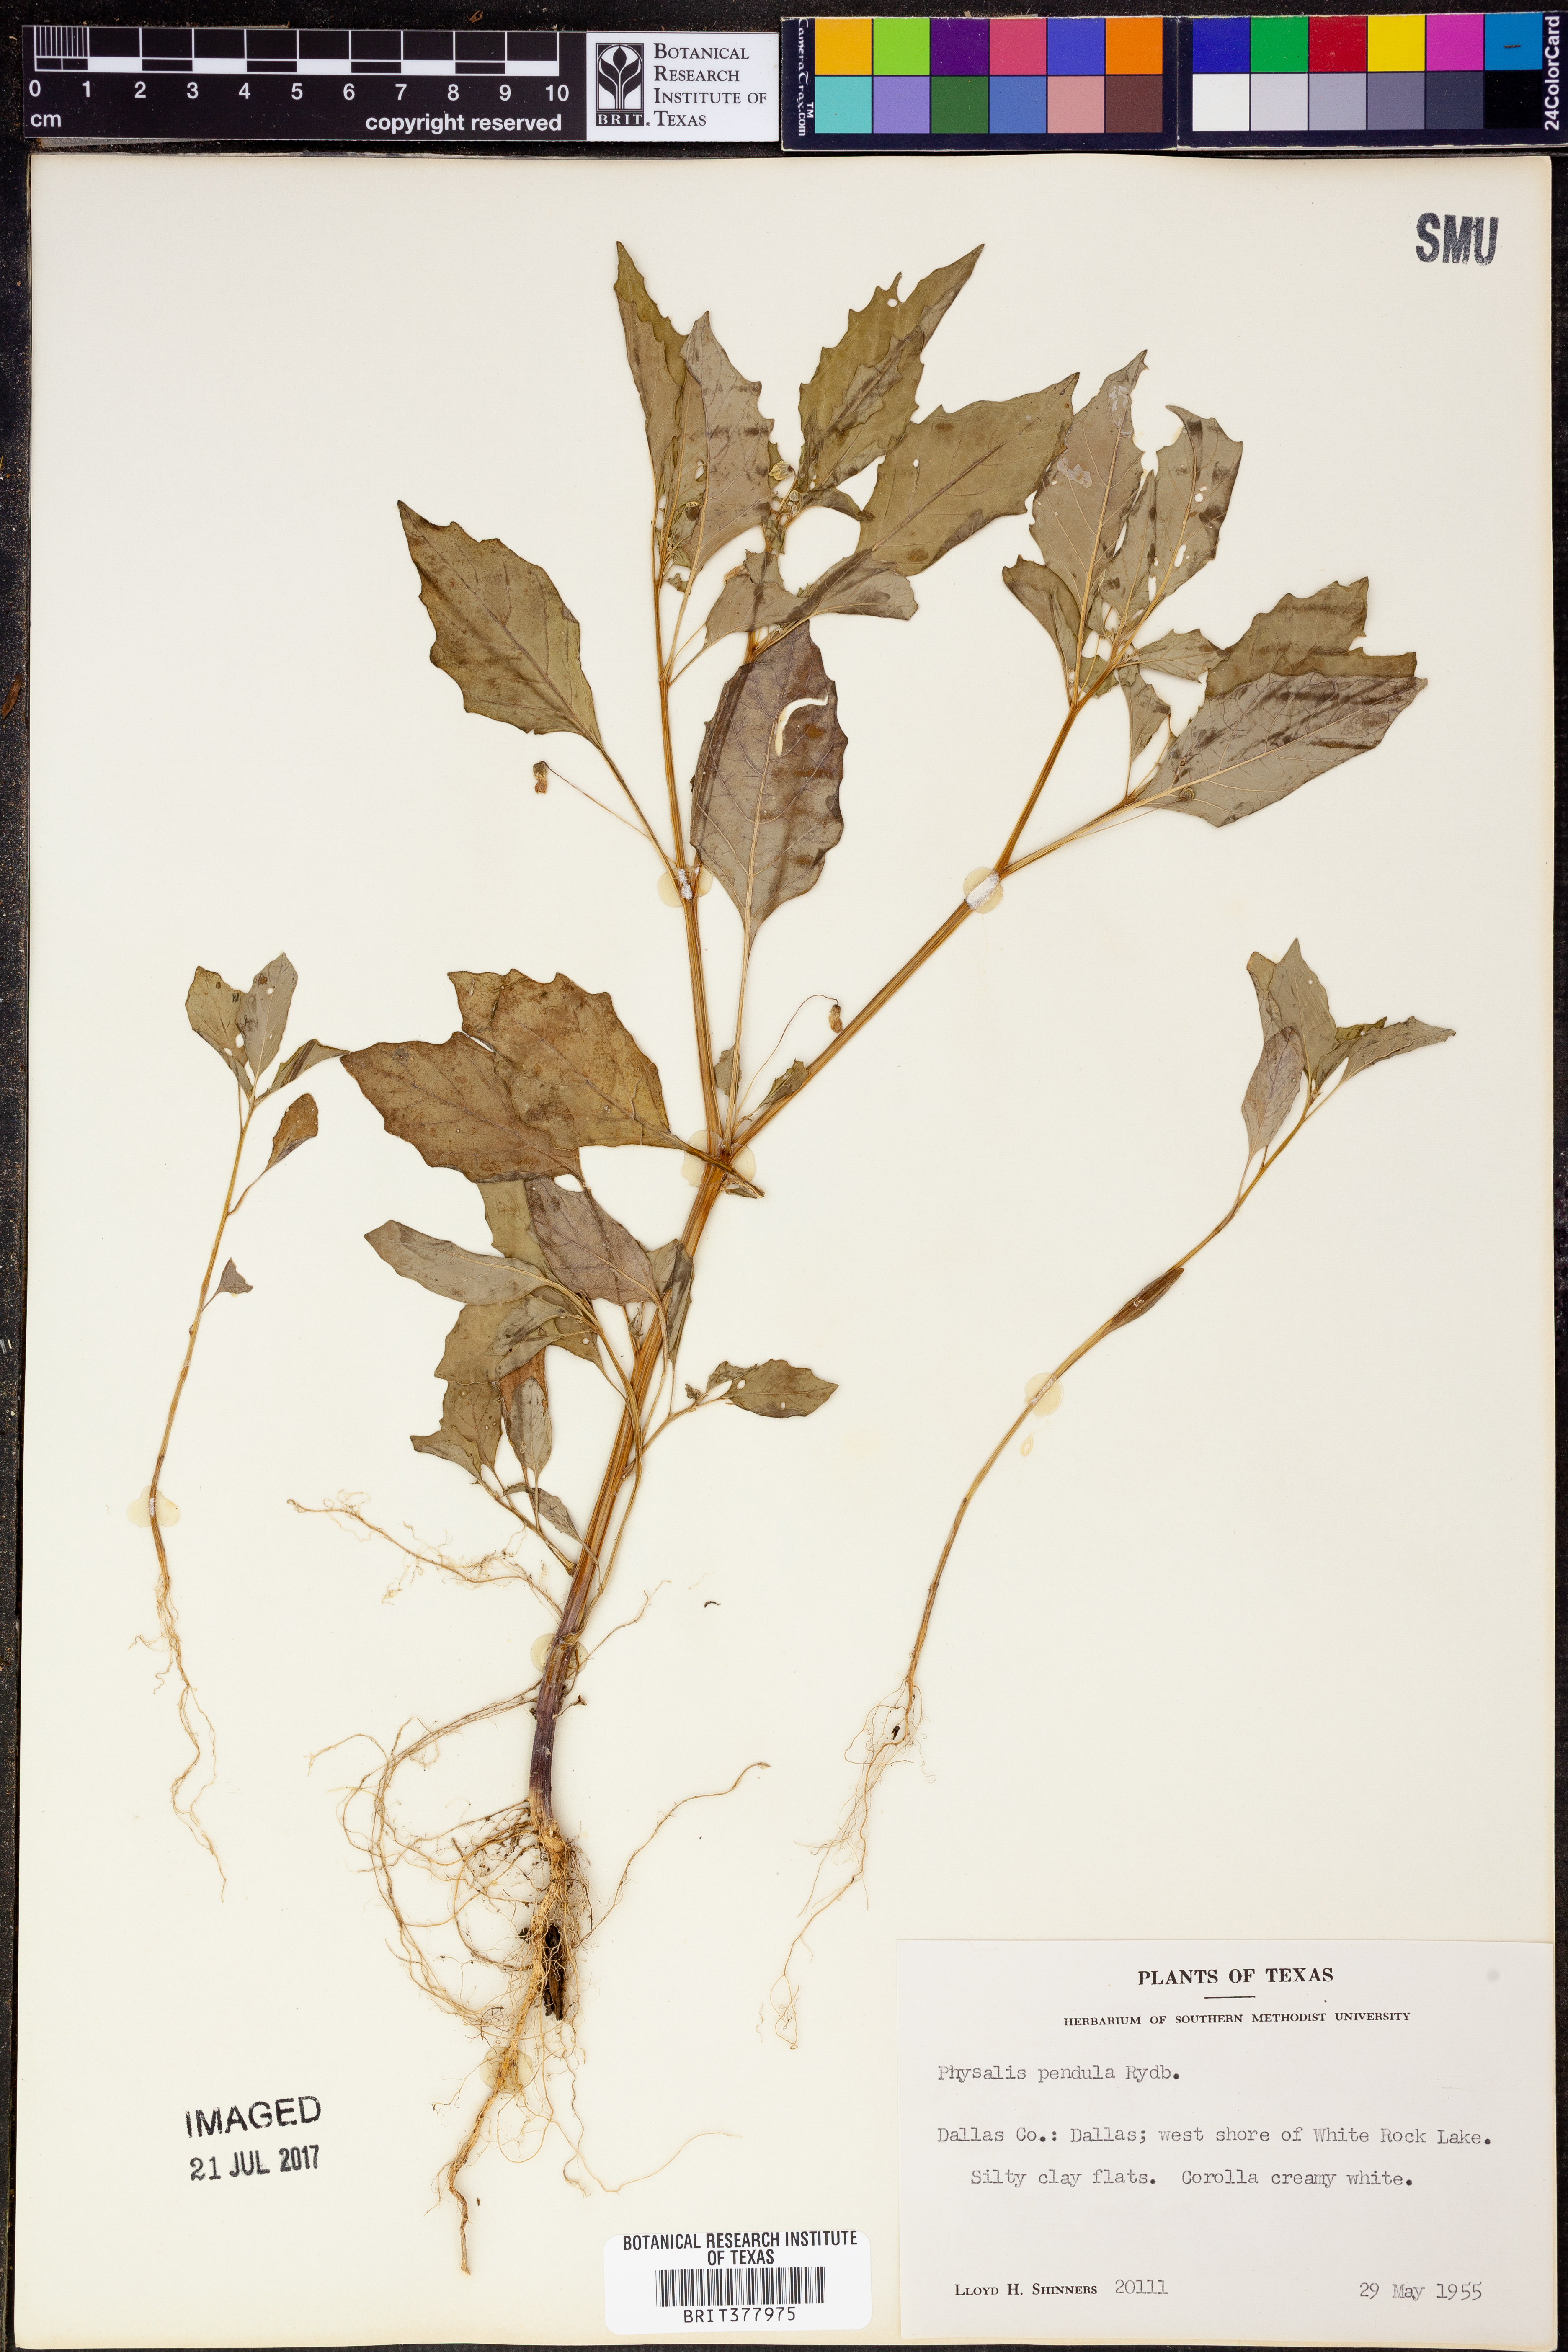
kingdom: Plantae
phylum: Tracheophyta
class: Magnoliopsida
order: Solanales
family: Solanaceae
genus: Physalis
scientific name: Physalis angulata
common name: Angular winter-cherry
